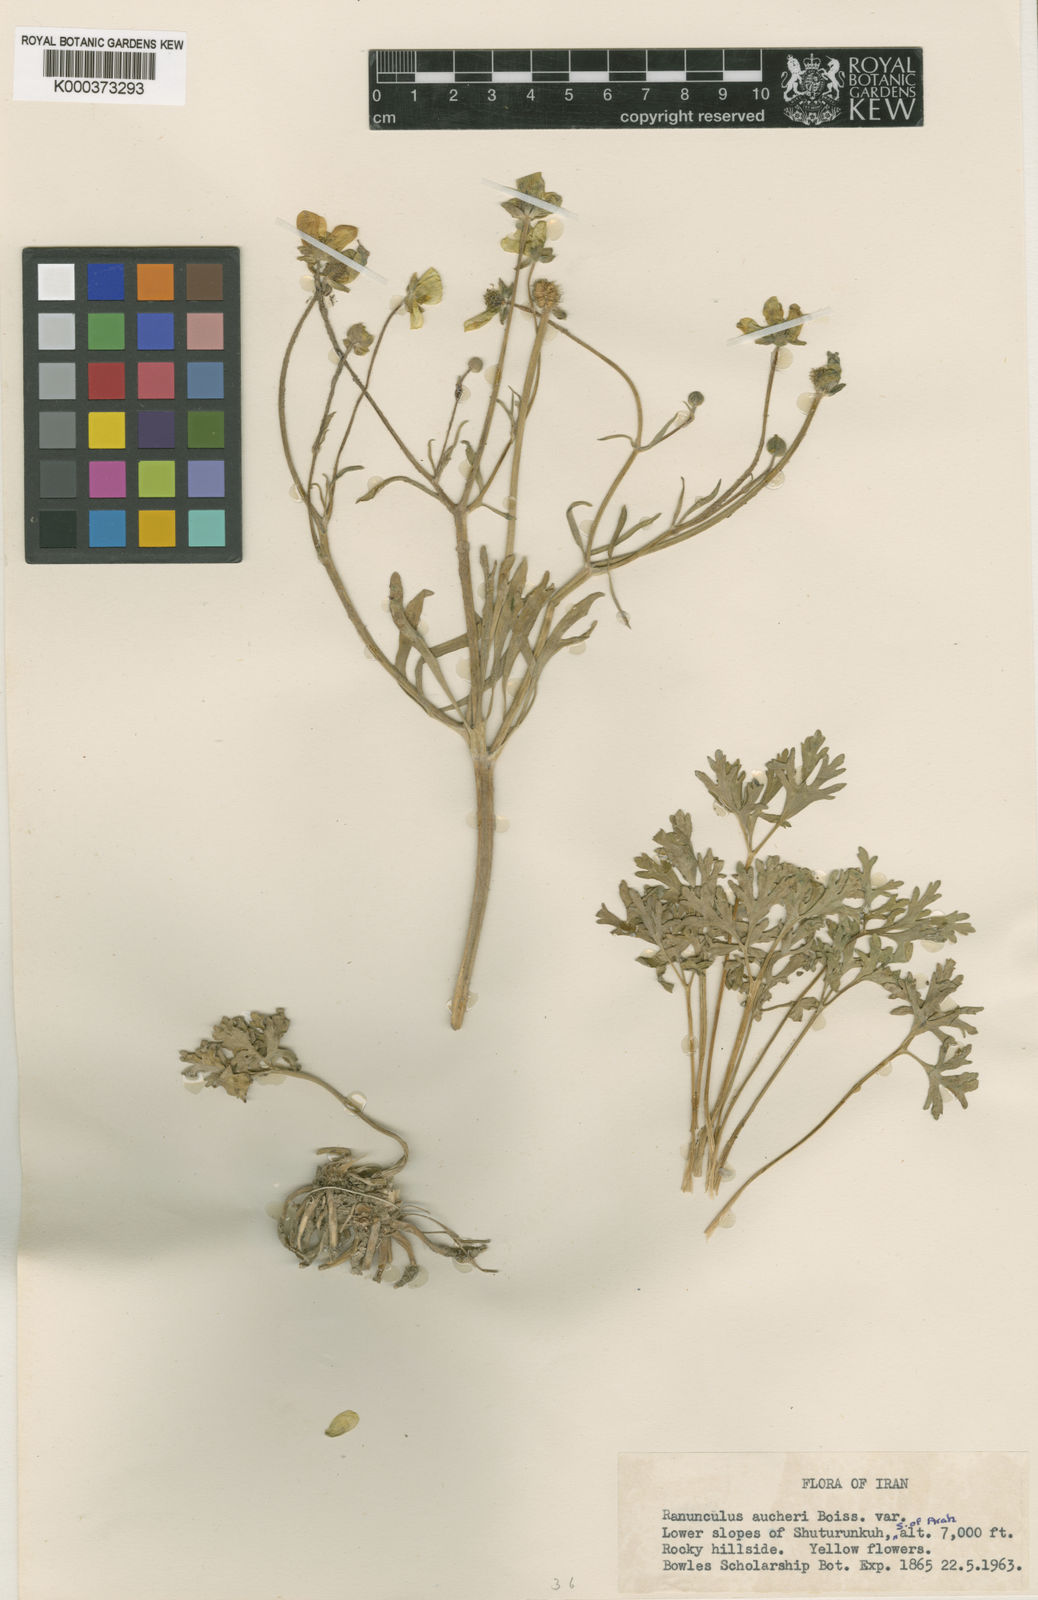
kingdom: Plantae
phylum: Tracheophyta
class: Magnoliopsida
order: Ranunculales
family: Ranunculaceae
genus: Ranunculus
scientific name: Ranunculus aucheri
